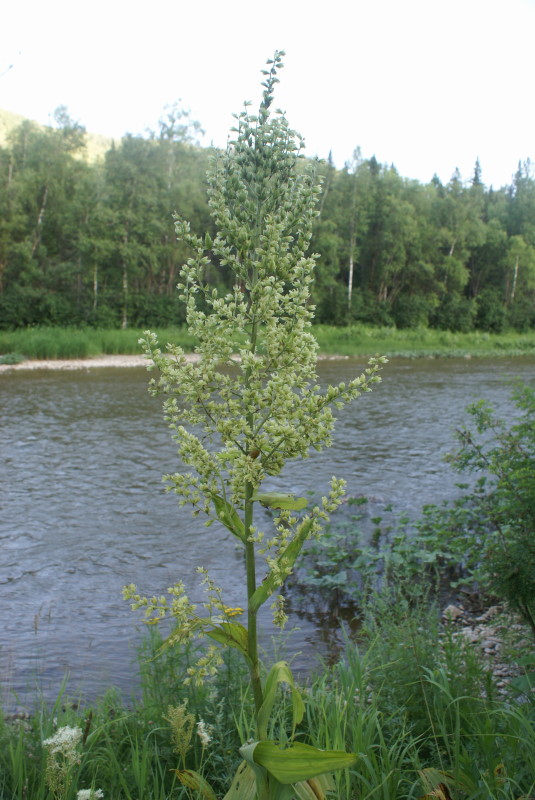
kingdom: Plantae
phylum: Tracheophyta
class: Liliopsida
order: Liliales
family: Liliaceae
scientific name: Liliaceae
